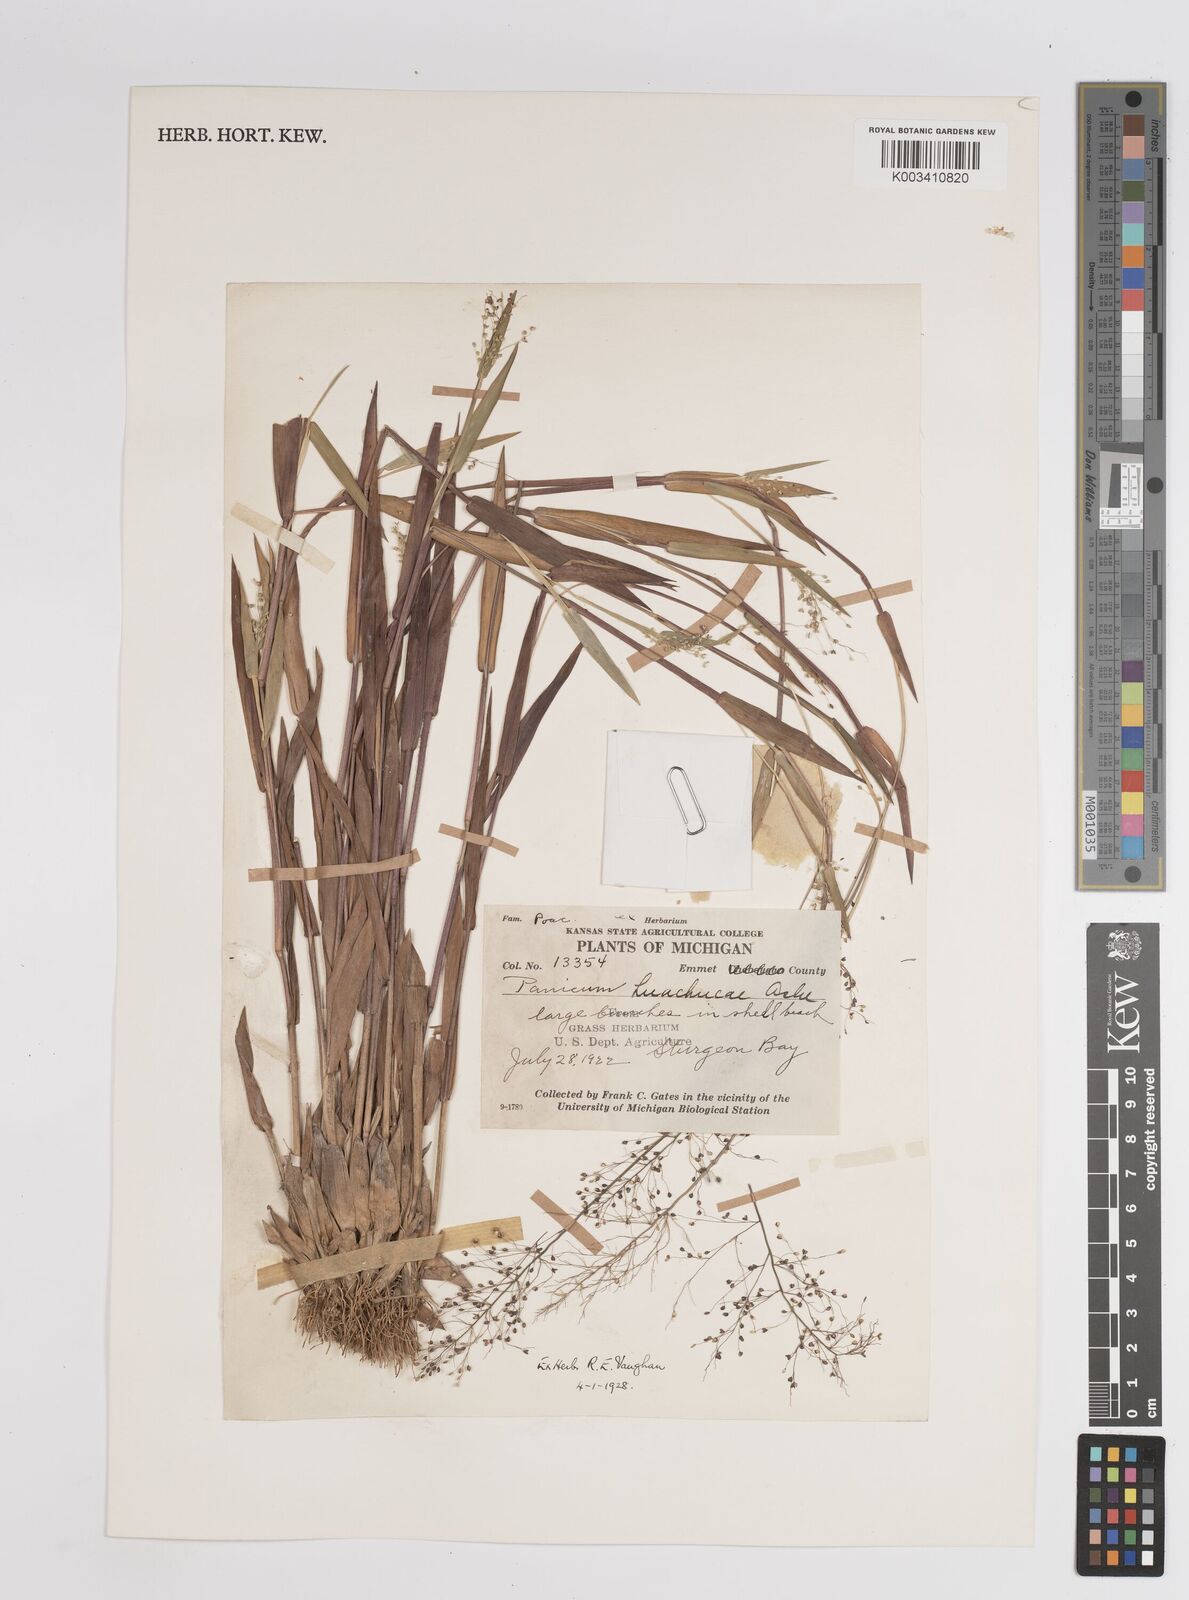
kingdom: Plantae
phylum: Tracheophyta
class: Liliopsida
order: Poales
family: Poaceae
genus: Dichanthelium
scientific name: Dichanthelium implicatum
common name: Slender-stemmed panicgrass
